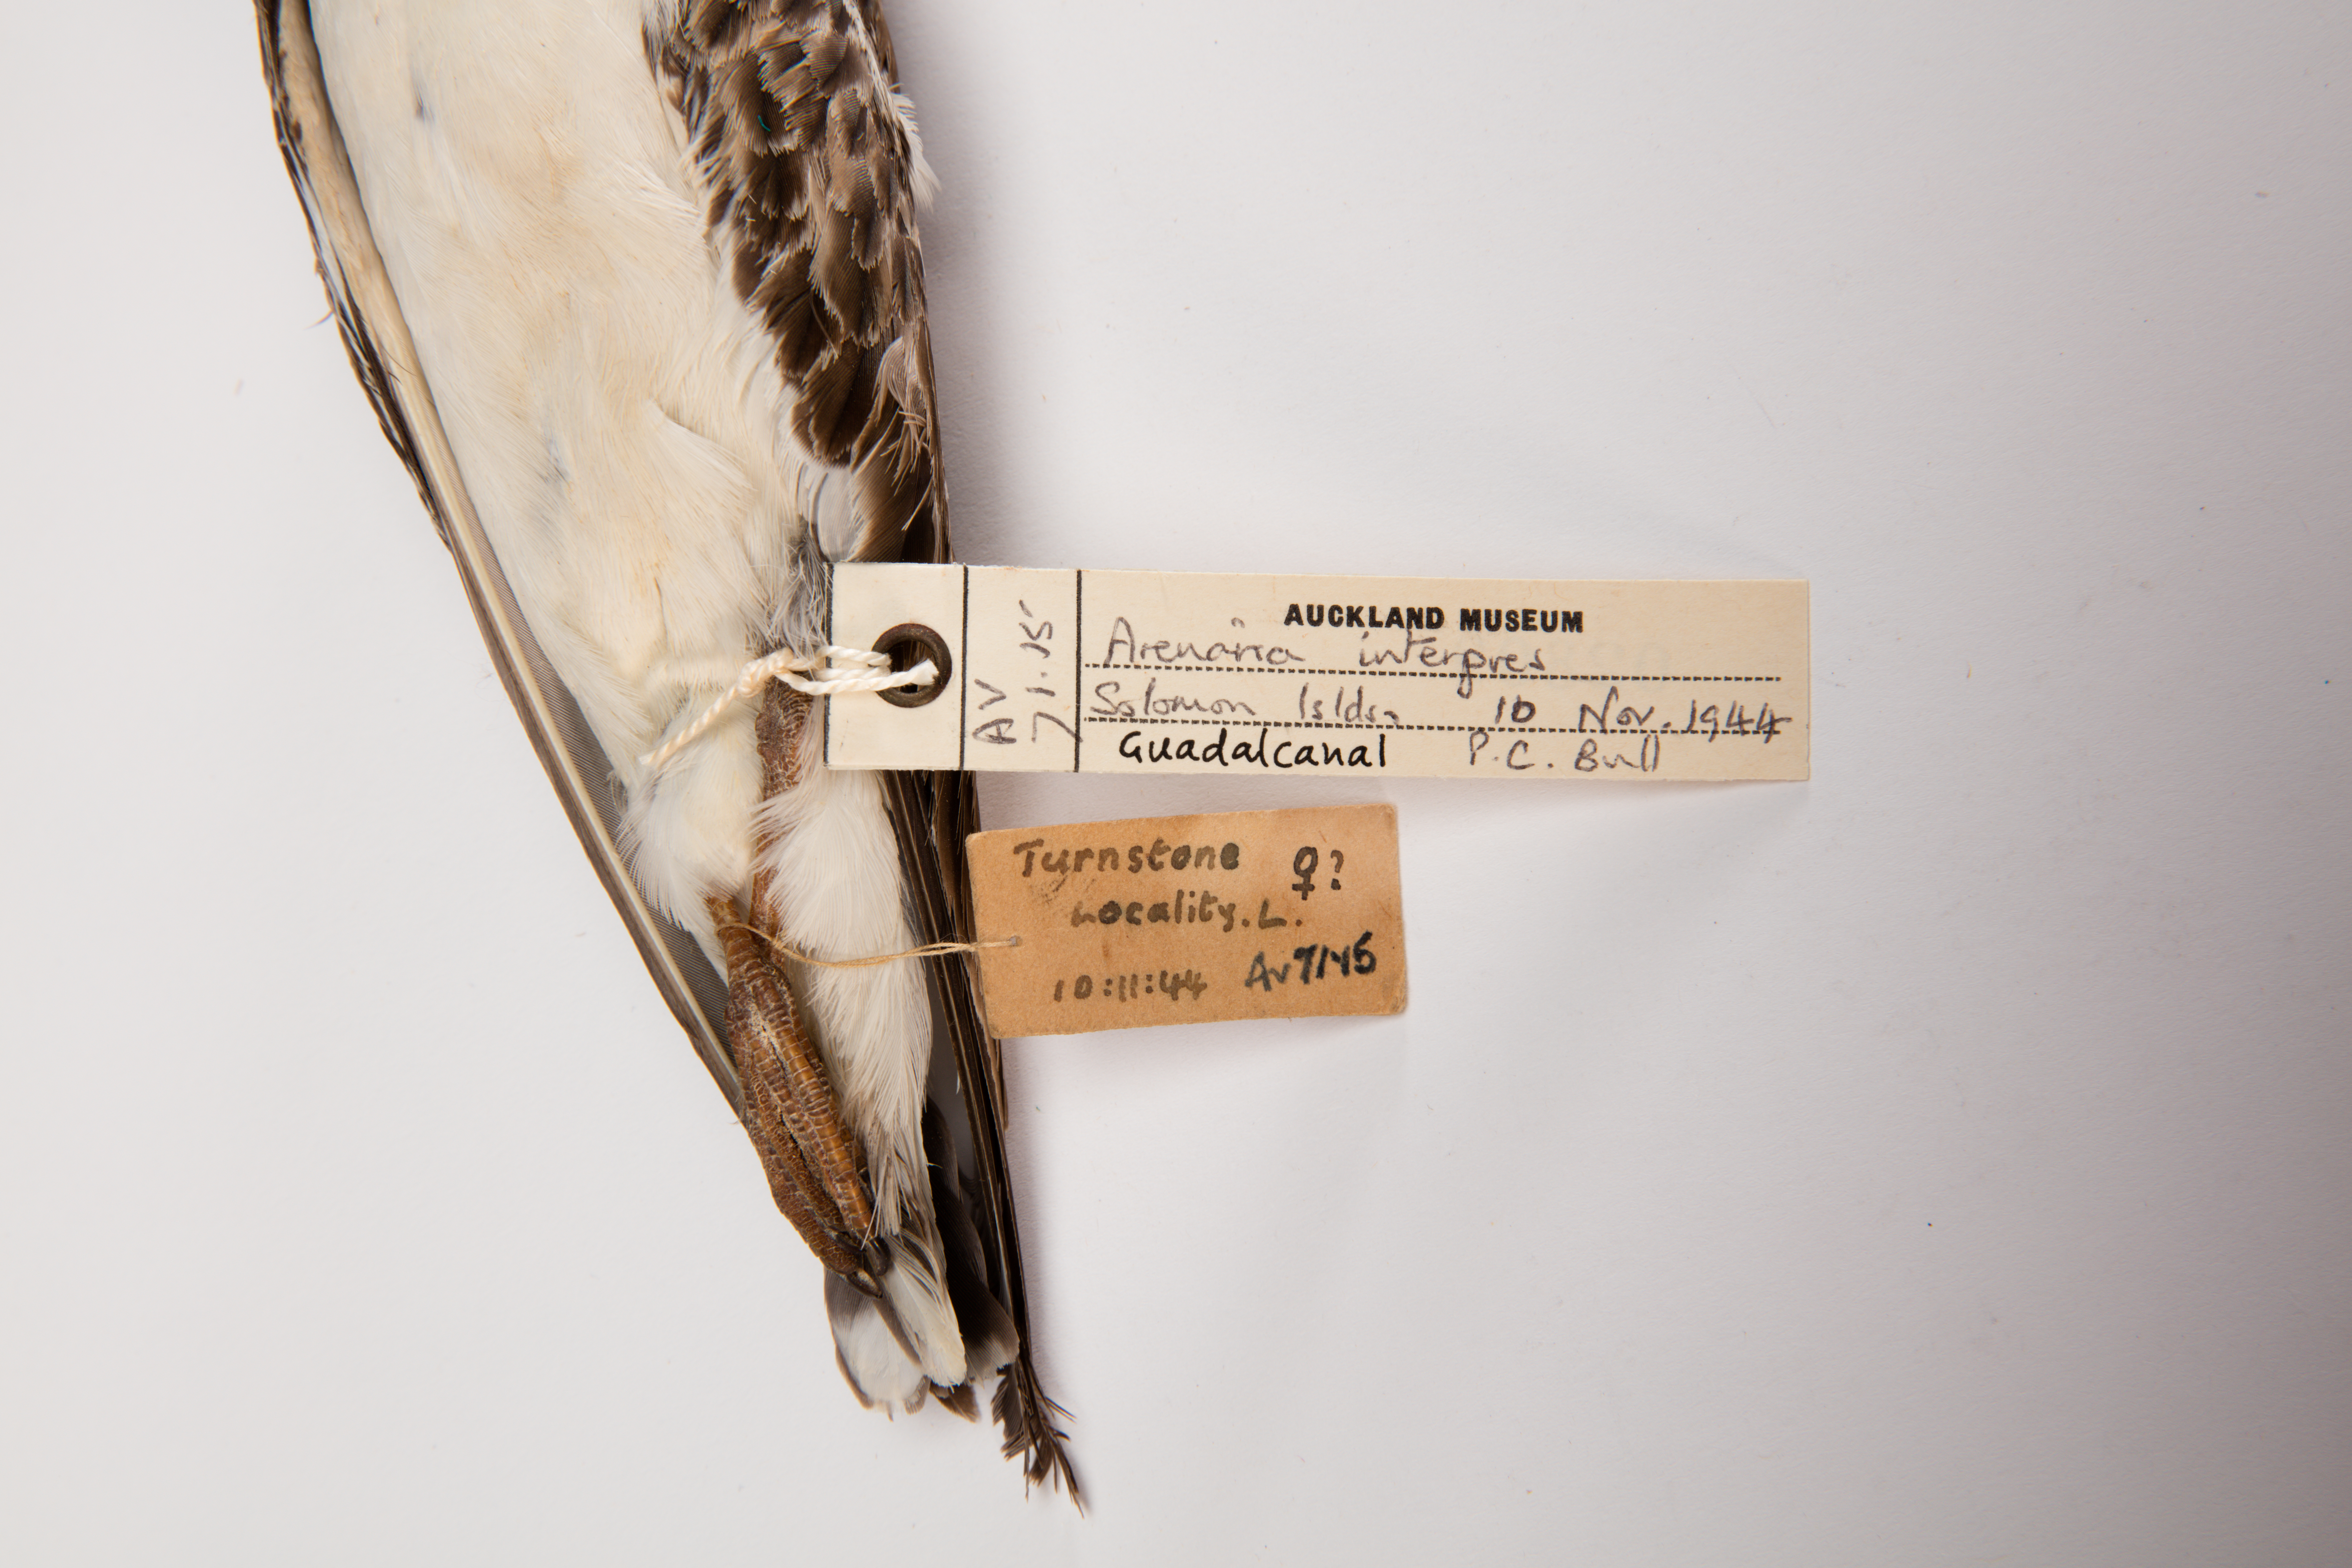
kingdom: Animalia
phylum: Chordata
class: Aves
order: Charadriiformes
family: Scolopacidae
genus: Arenaria
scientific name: Arenaria interpres
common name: Ruddy turnstone
